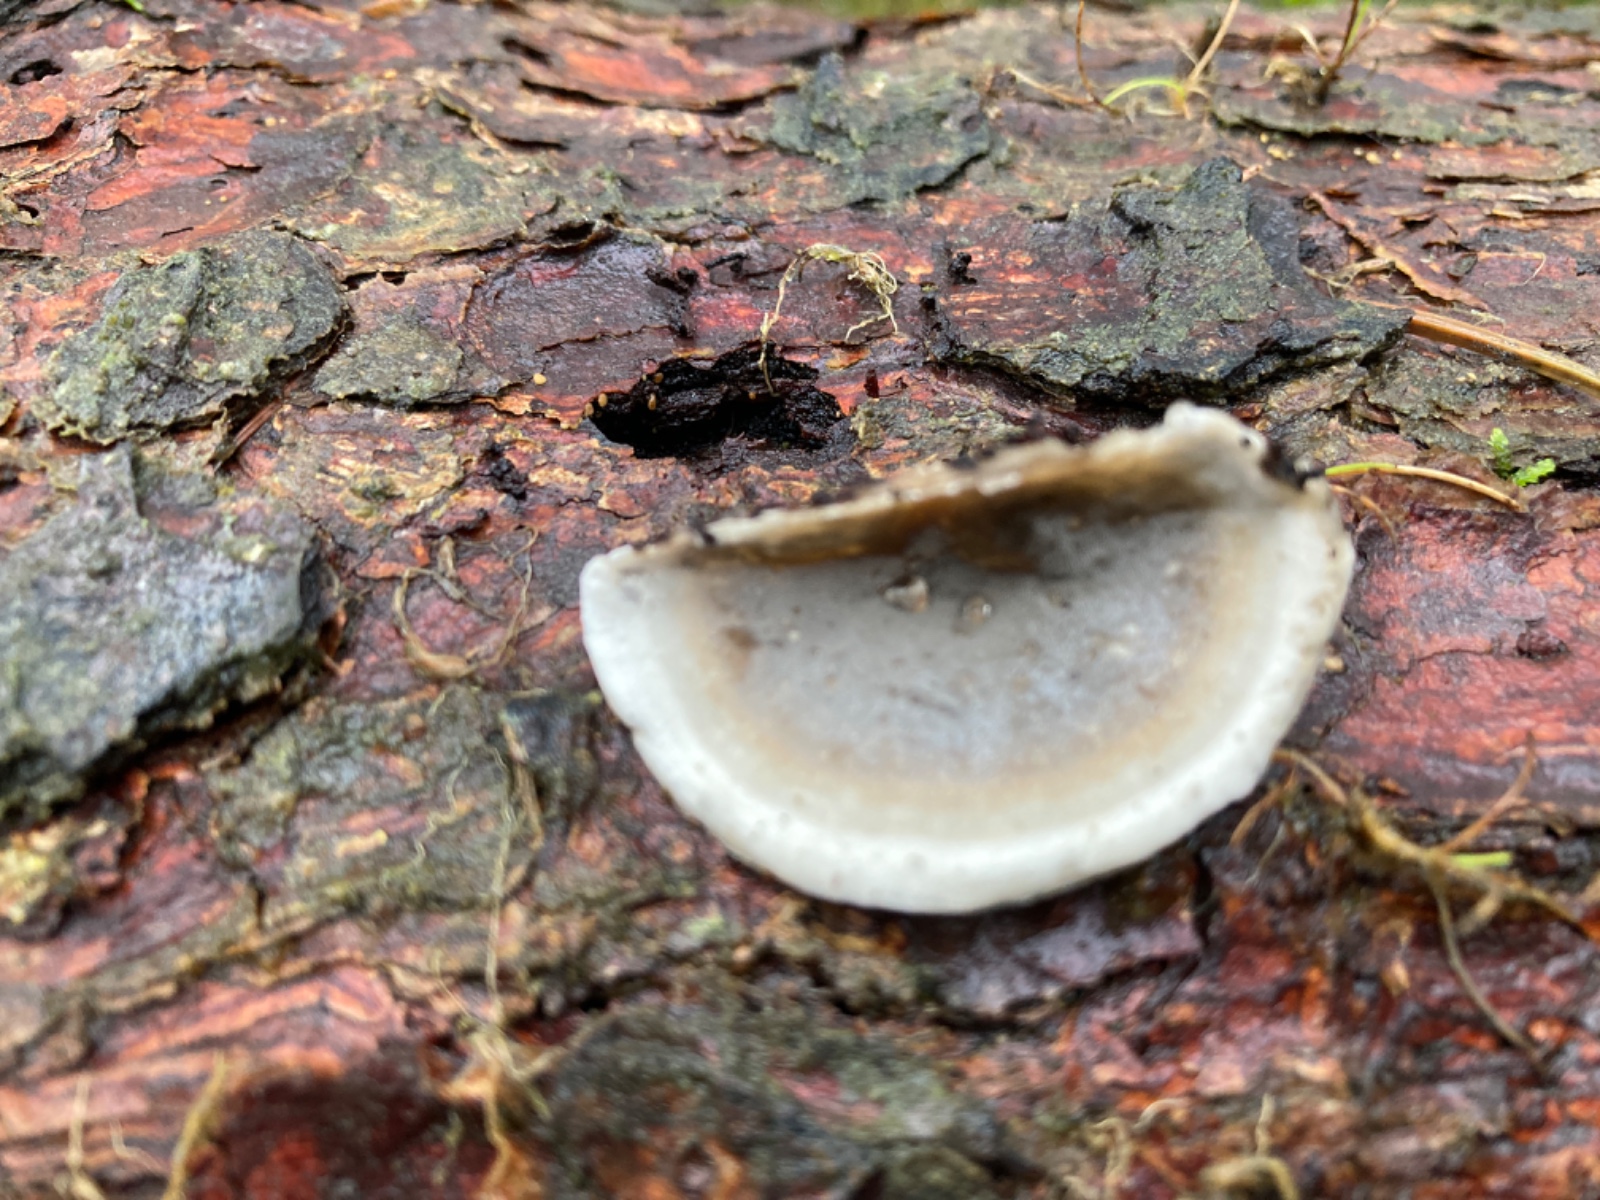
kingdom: Fungi
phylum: Basidiomycota
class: Agaricomycetes
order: Polyporales
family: Phanerochaetaceae
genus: Bjerkandera
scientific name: Bjerkandera adusta
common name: sveden sodporesvamp
